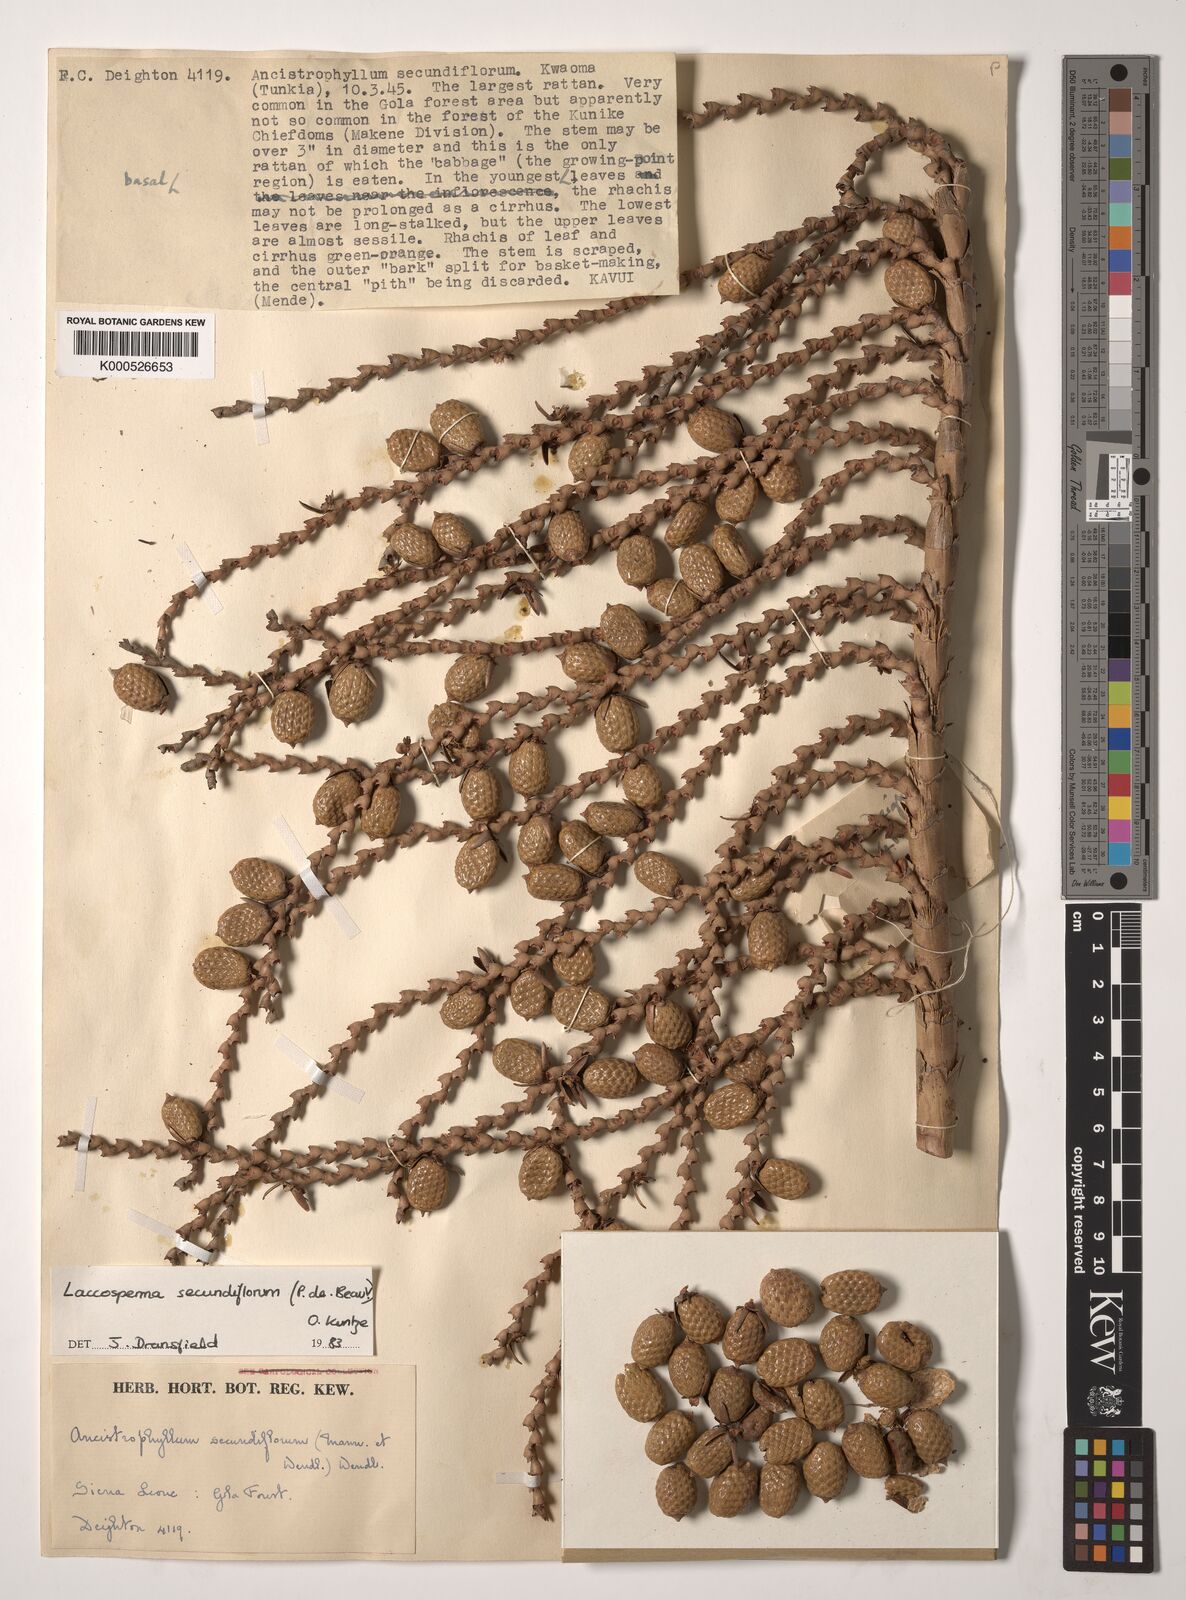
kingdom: Plantae
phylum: Tracheophyta
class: Liliopsida
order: Arecales
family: Arecaceae
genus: Laccosperma
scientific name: Laccosperma secundiflorum
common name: Rattan
